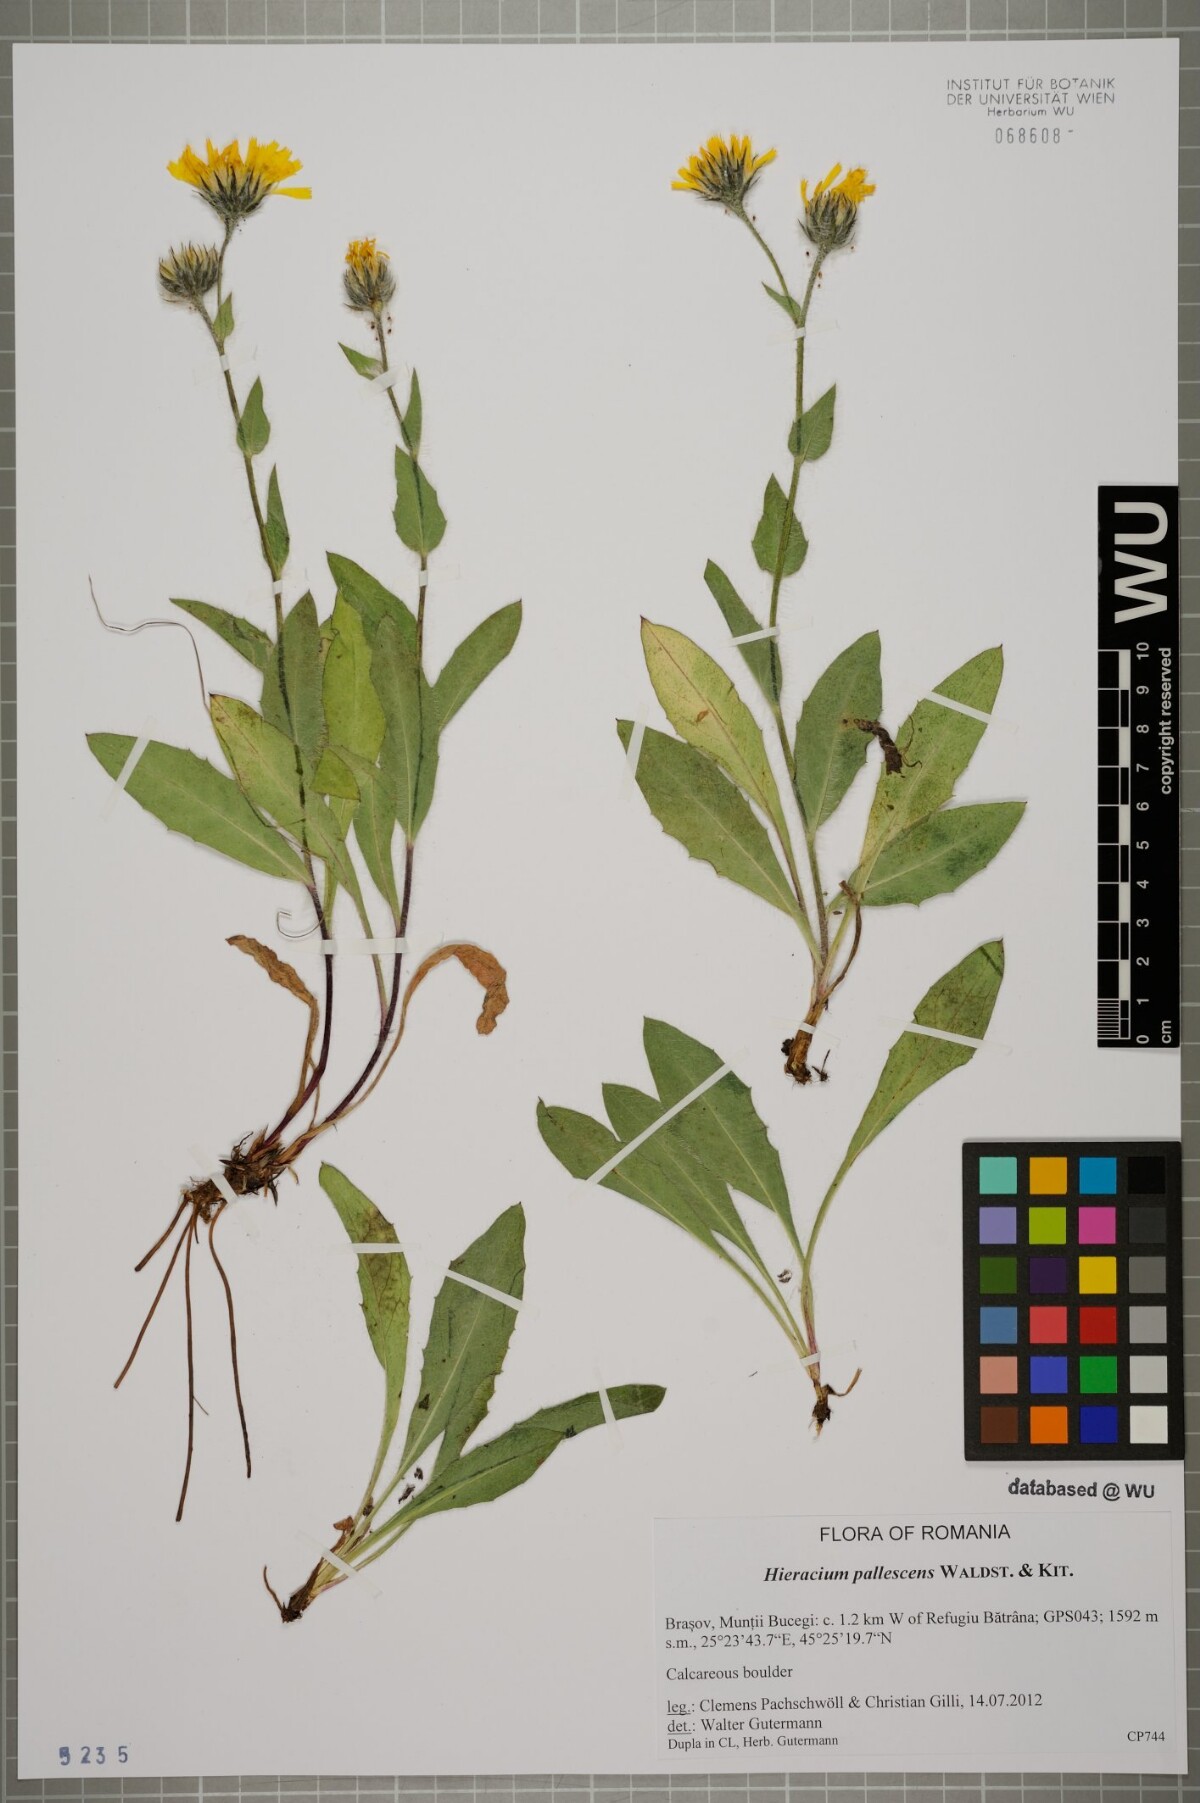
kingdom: Plantae
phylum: Tracheophyta
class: Magnoliopsida
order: Asterales
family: Asteraceae
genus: Hieracium
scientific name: Hieracium pallescens
